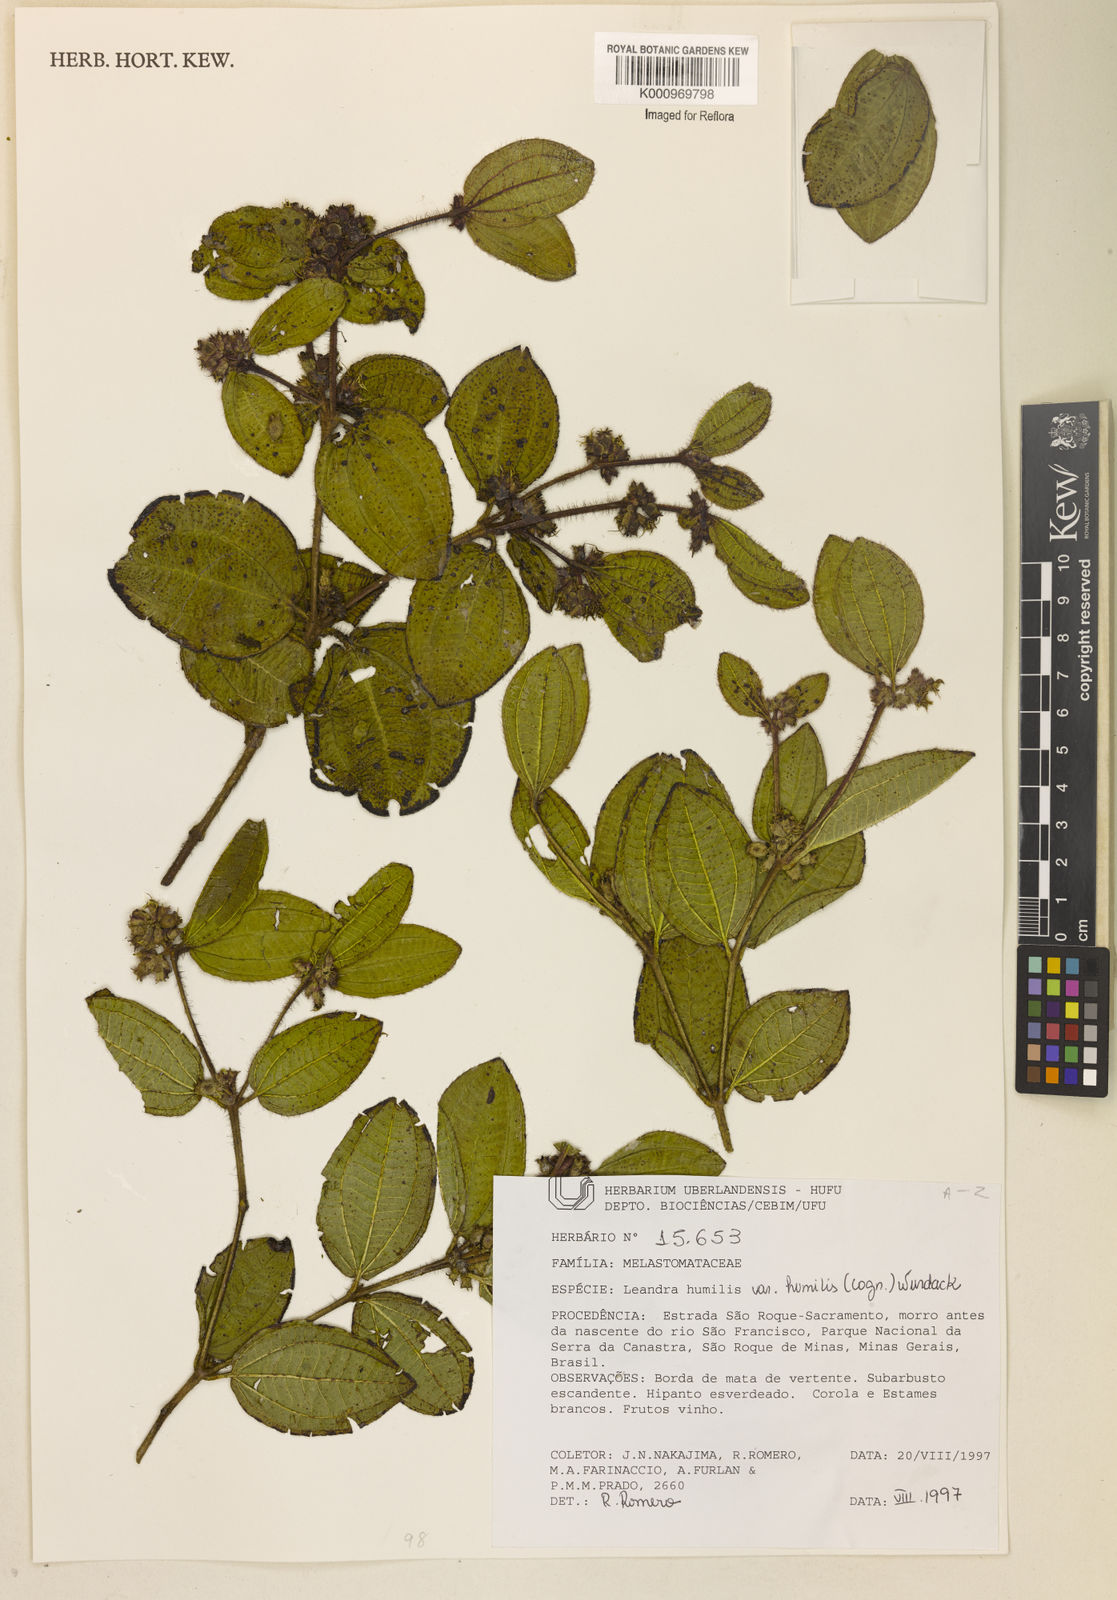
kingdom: Plantae
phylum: Tracheophyta
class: Magnoliopsida
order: Myrtales
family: Melastomataceae
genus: Miconia
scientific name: Miconia leahumilis
